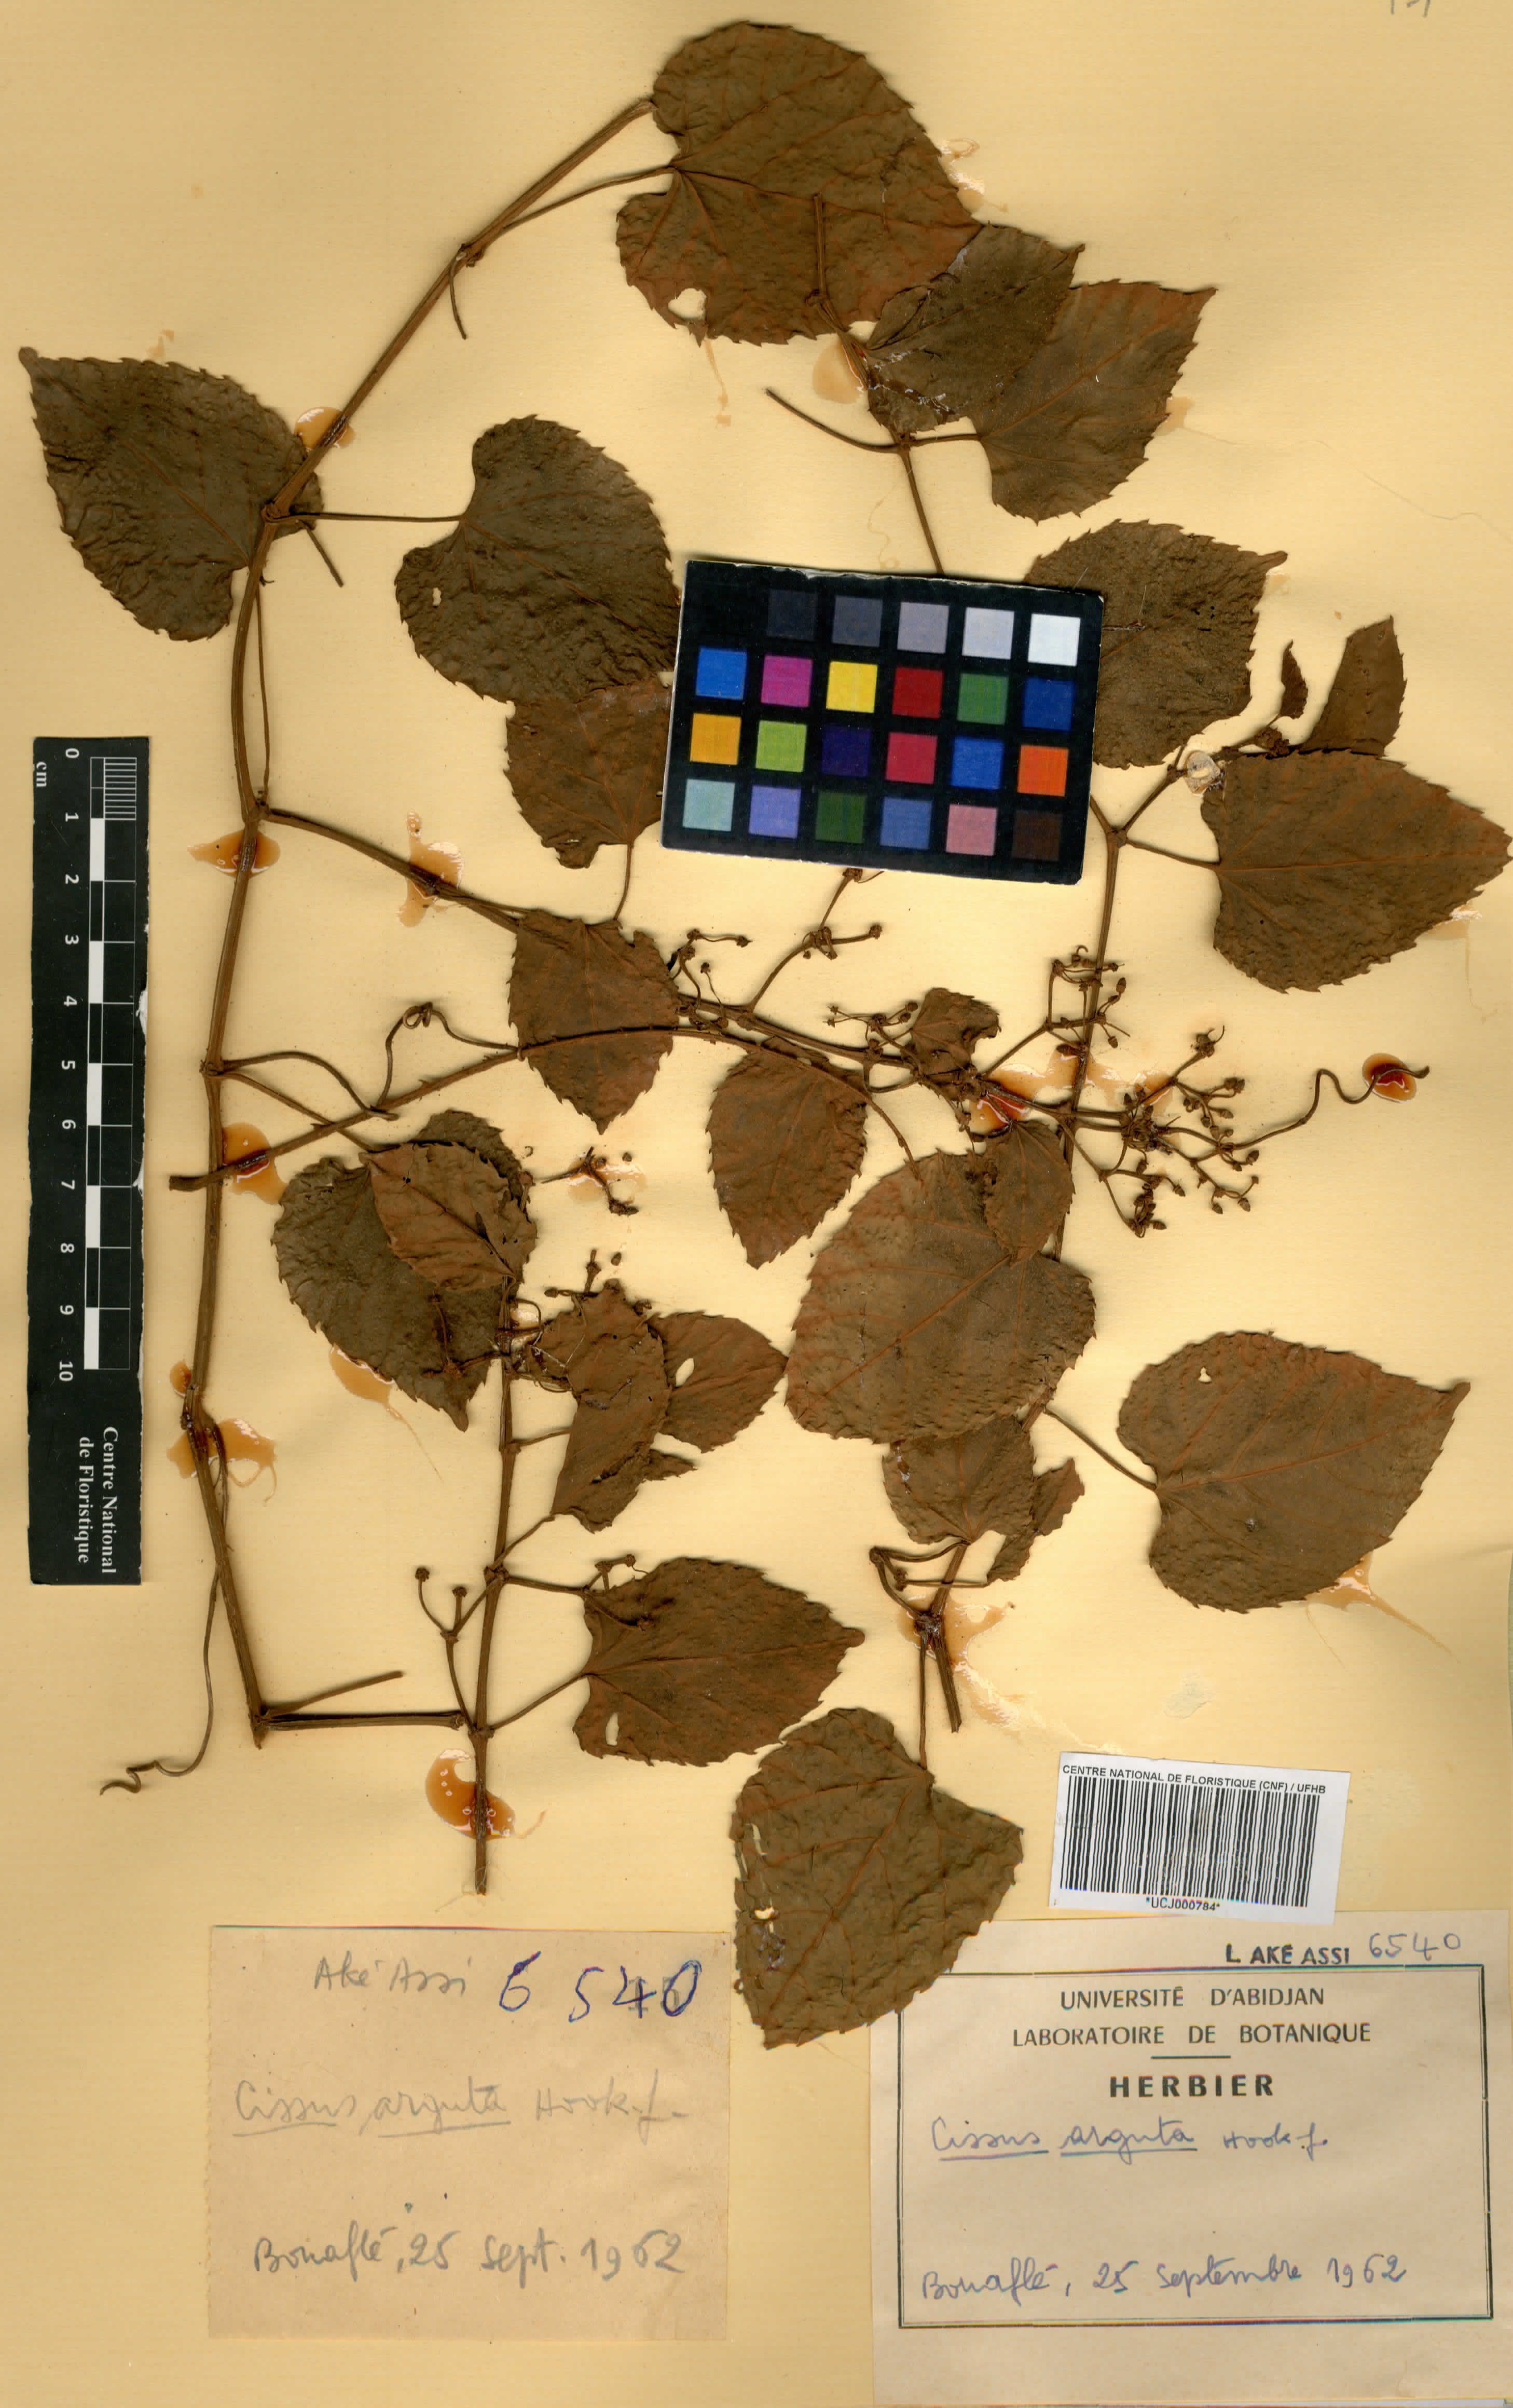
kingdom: Plantae
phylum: Tracheophyta
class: Magnoliopsida
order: Vitales
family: Vitaceae
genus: Cissus
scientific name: Cissus arguta
